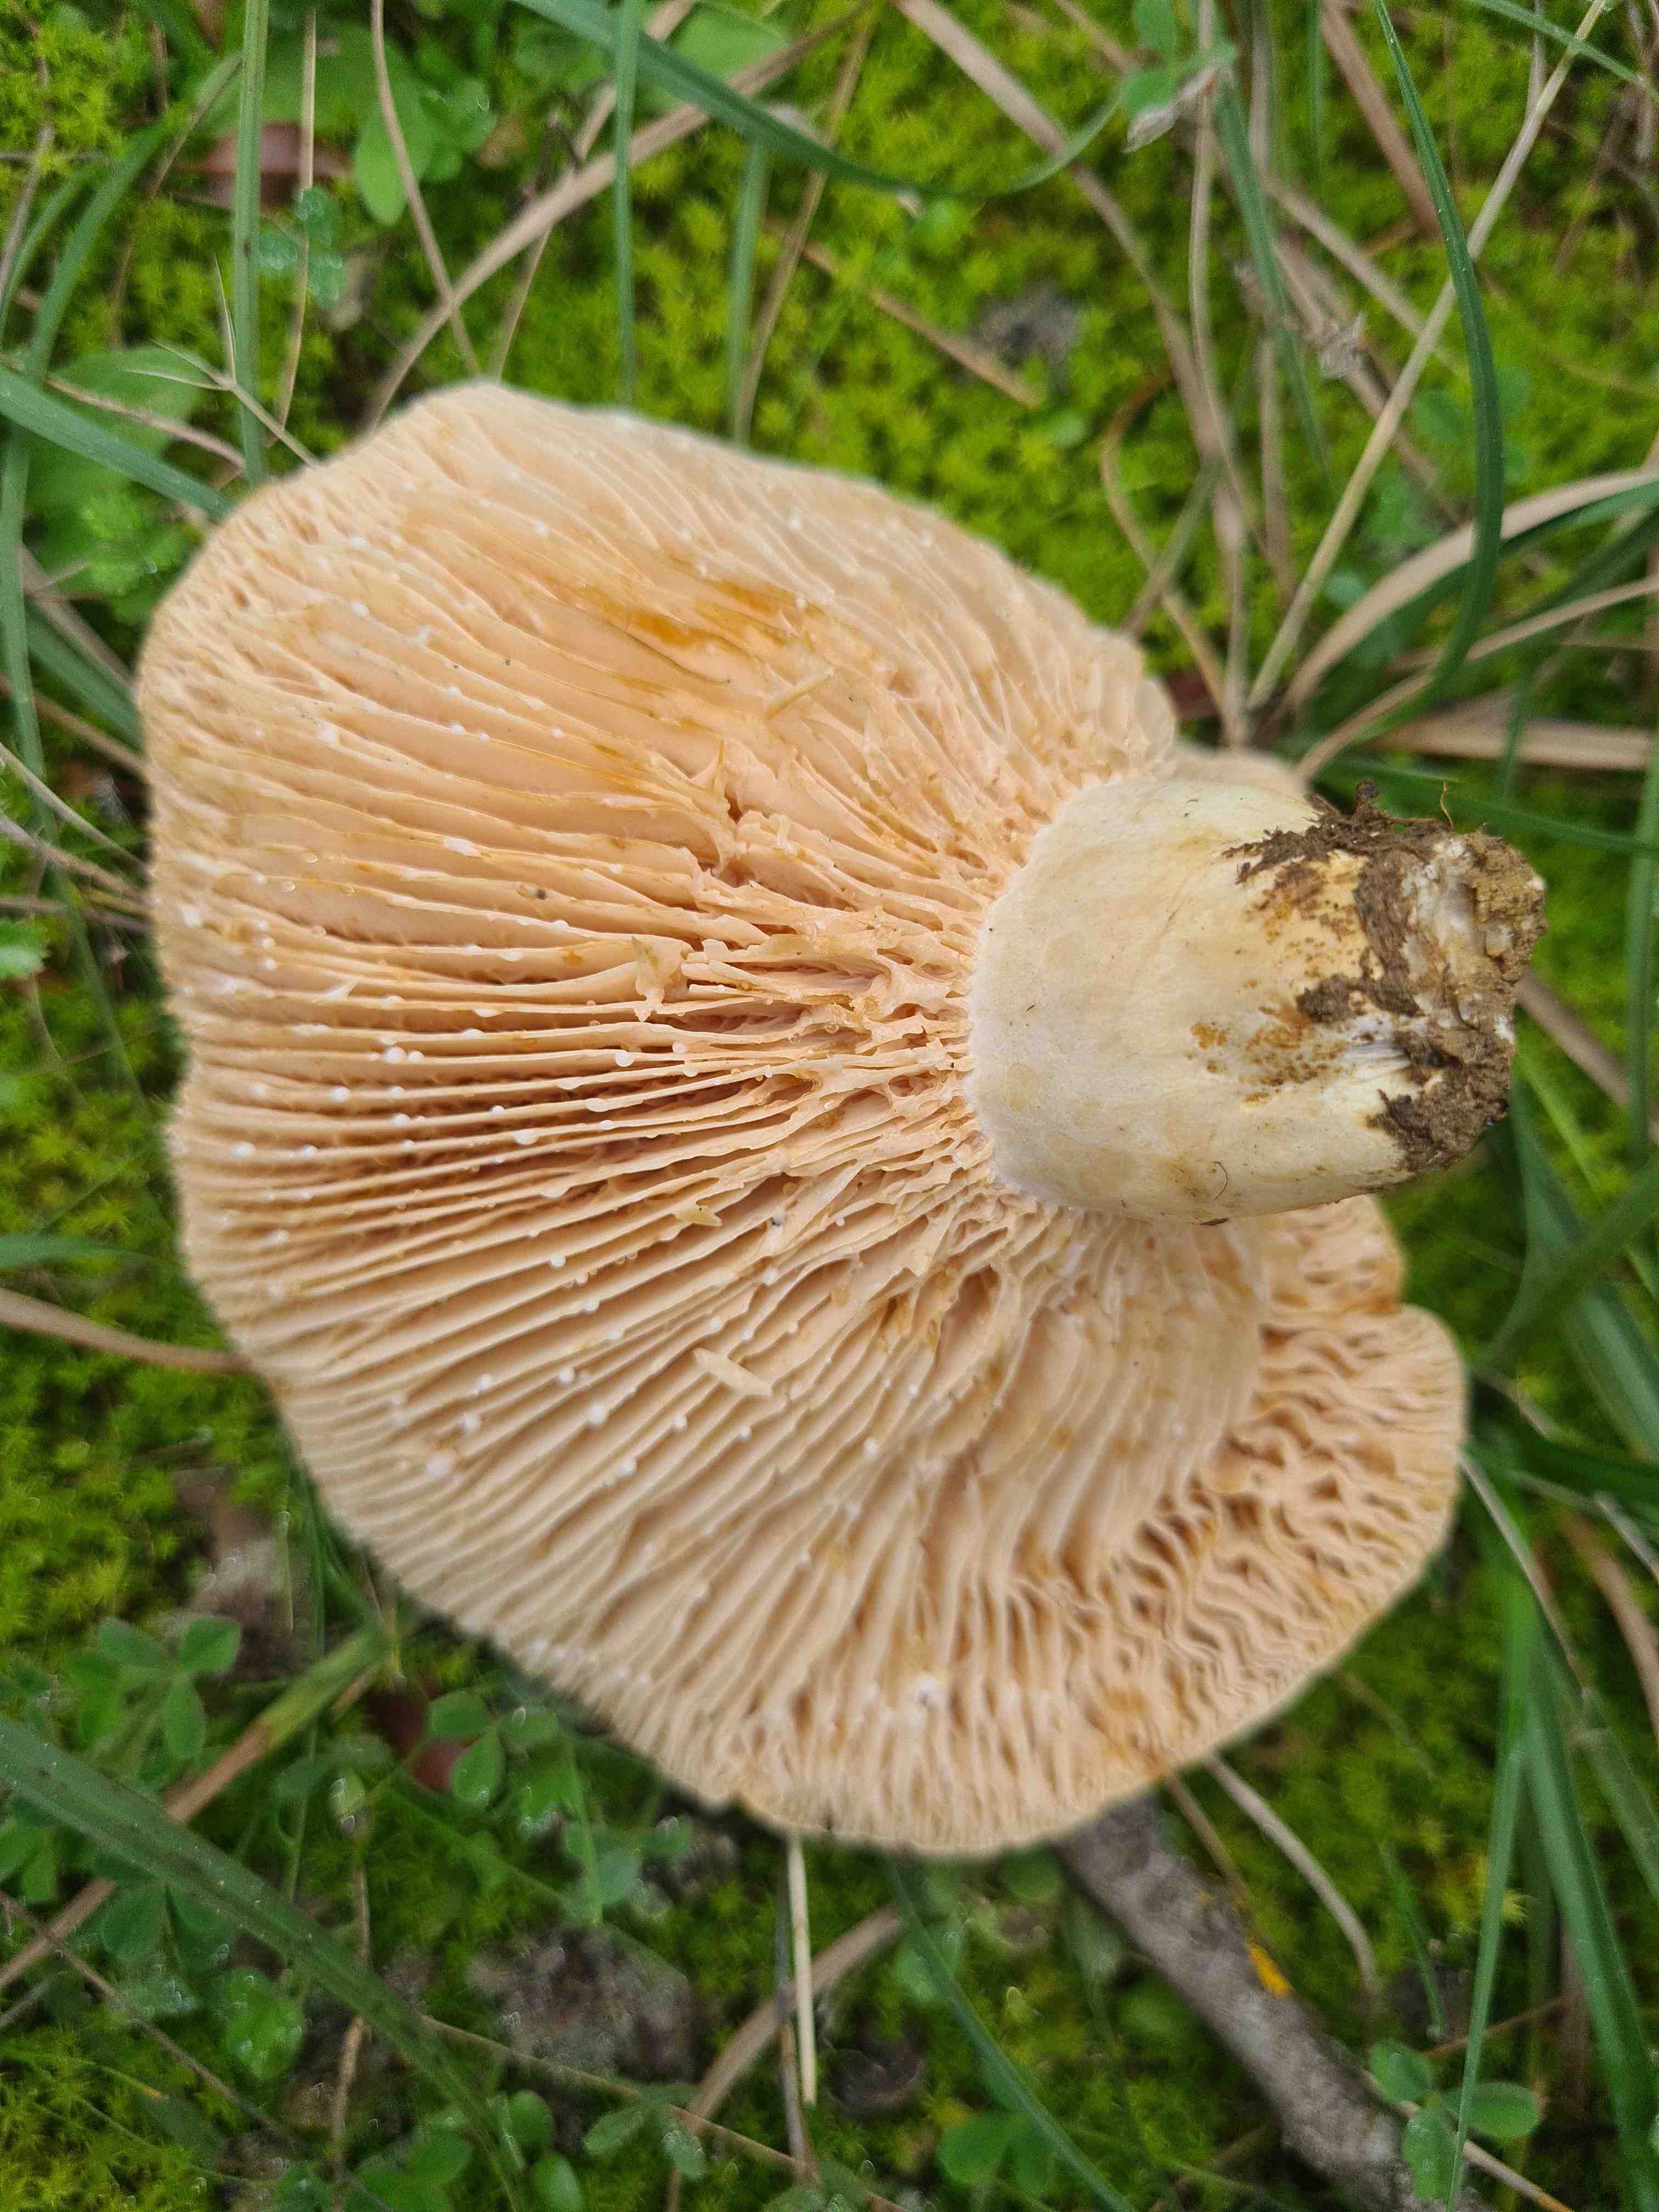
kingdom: Fungi
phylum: Basidiomycota
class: Agaricomycetes
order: Russulales
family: Russulaceae
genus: Lactarius
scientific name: Lactarius acerrimus
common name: brændende mælkehat
